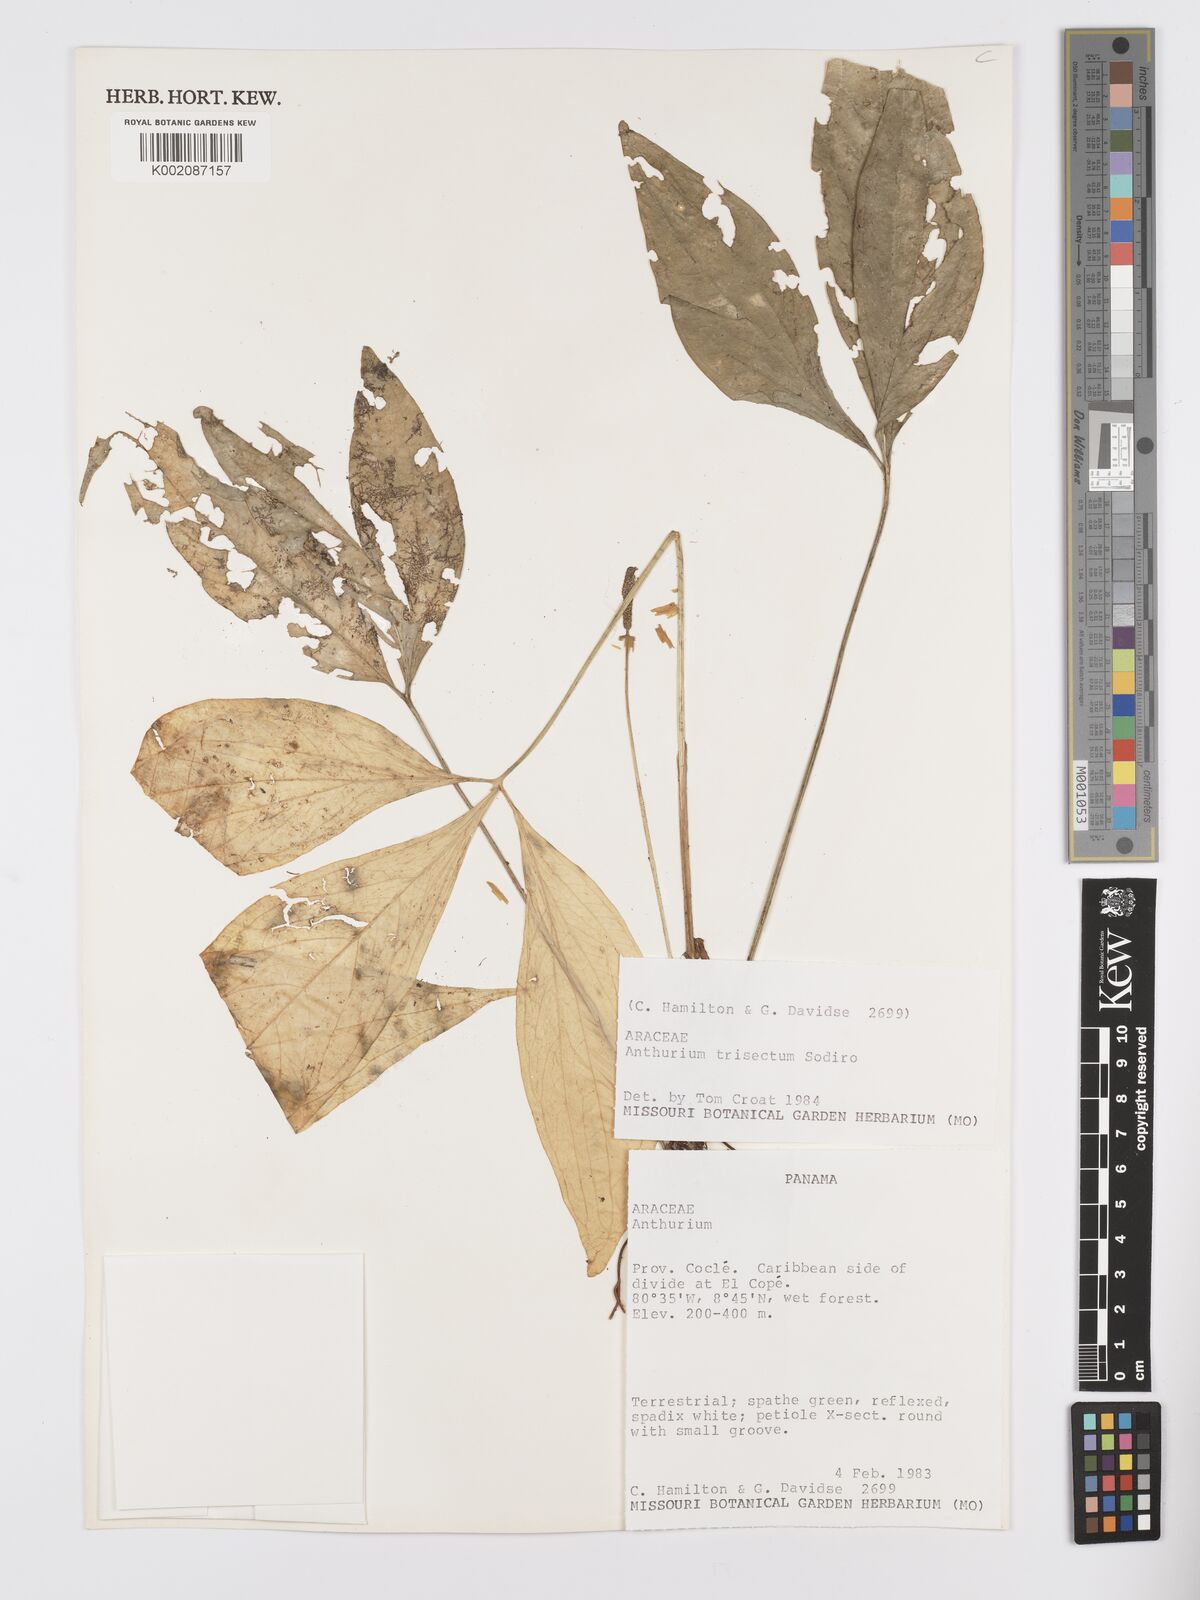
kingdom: Plantae
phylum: Tracheophyta
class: Liliopsida
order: Alismatales
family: Araceae
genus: Anthurium
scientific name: Anthurium trisectum
